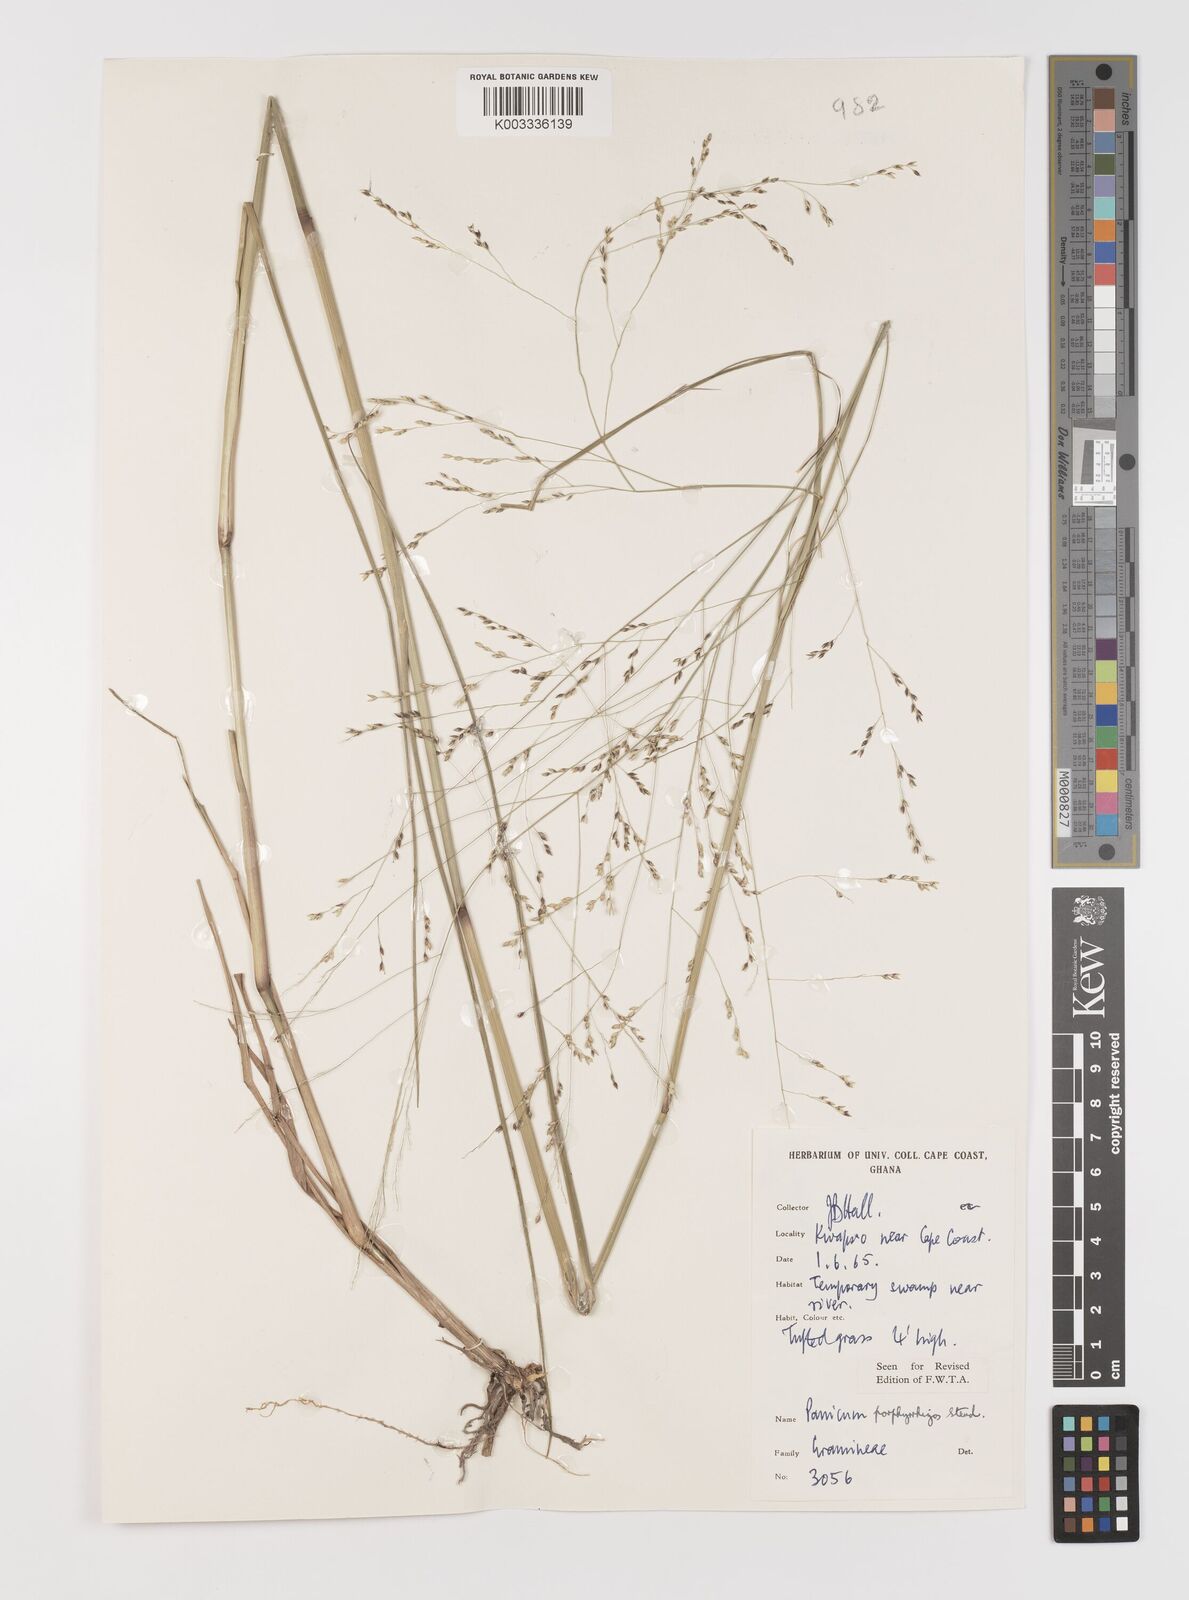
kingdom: Plantae
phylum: Tracheophyta
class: Liliopsida
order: Poales
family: Poaceae
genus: Panicum
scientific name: Panicum porphyrrhizos
